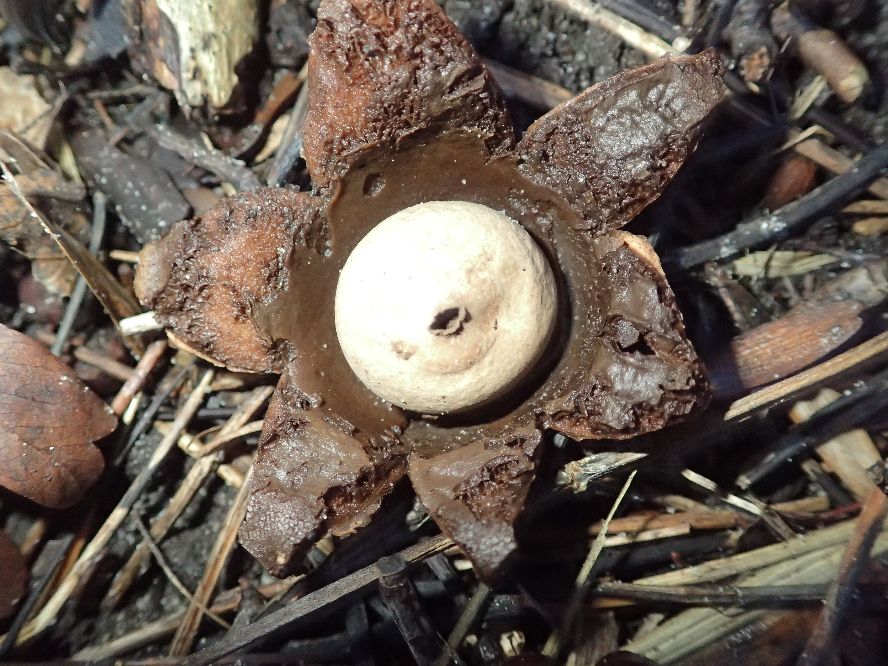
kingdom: Fungi
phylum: Basidiomycota
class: Agaricomycetes
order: Geastrales
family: Geastraceae
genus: Geastrum
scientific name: Geastrum michelianum
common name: kødet stjernebold
